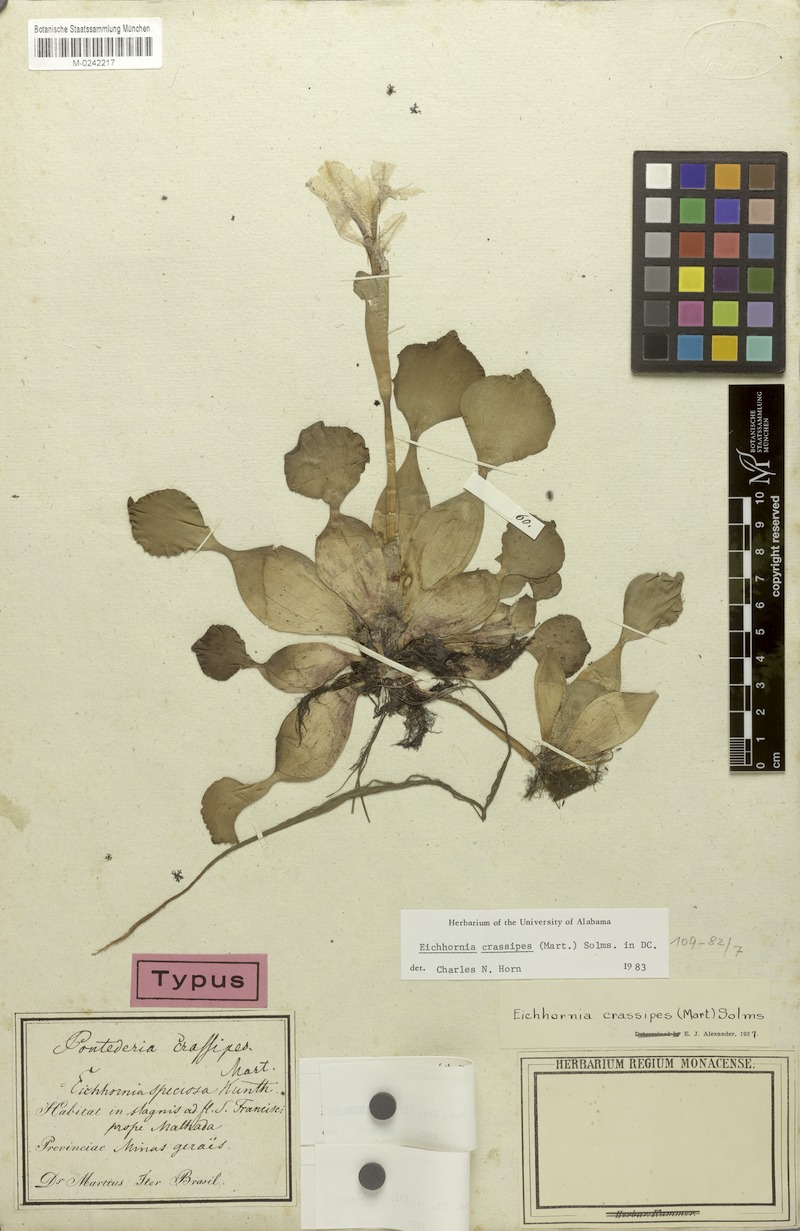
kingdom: Plantae
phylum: Tracheophyta
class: Liliopsida
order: Commelinales
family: Pontederiaceae
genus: Pontederia
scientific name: Pontederia crassipes
